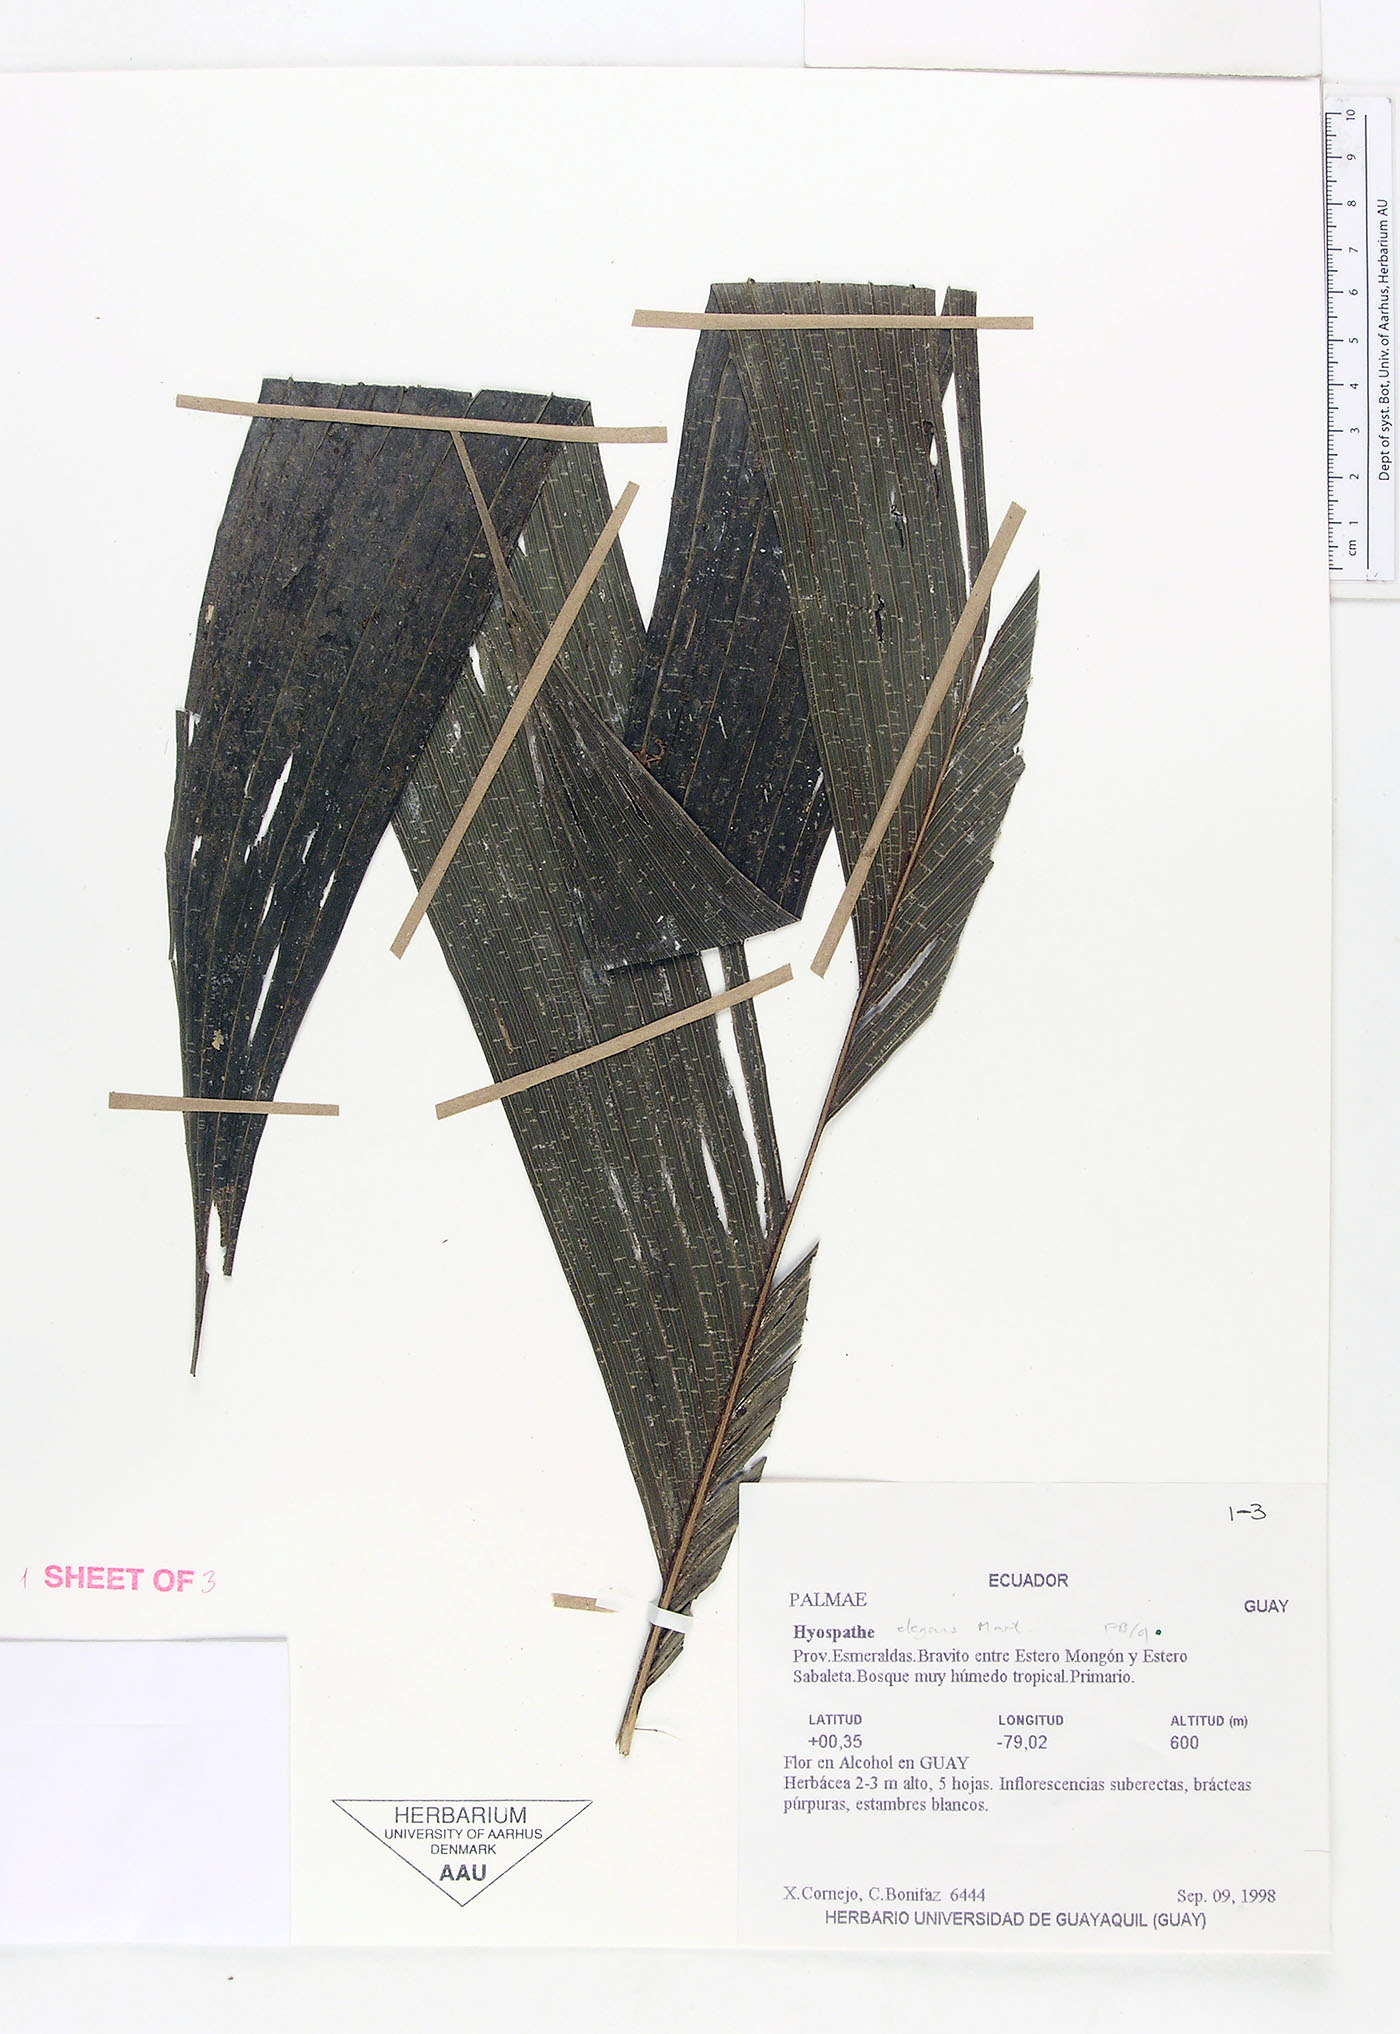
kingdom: Plantae
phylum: Tracheophyta
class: Liliopsida
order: Arecales
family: Arecaceae
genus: Hyospathe
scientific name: Hyospathe elegans
